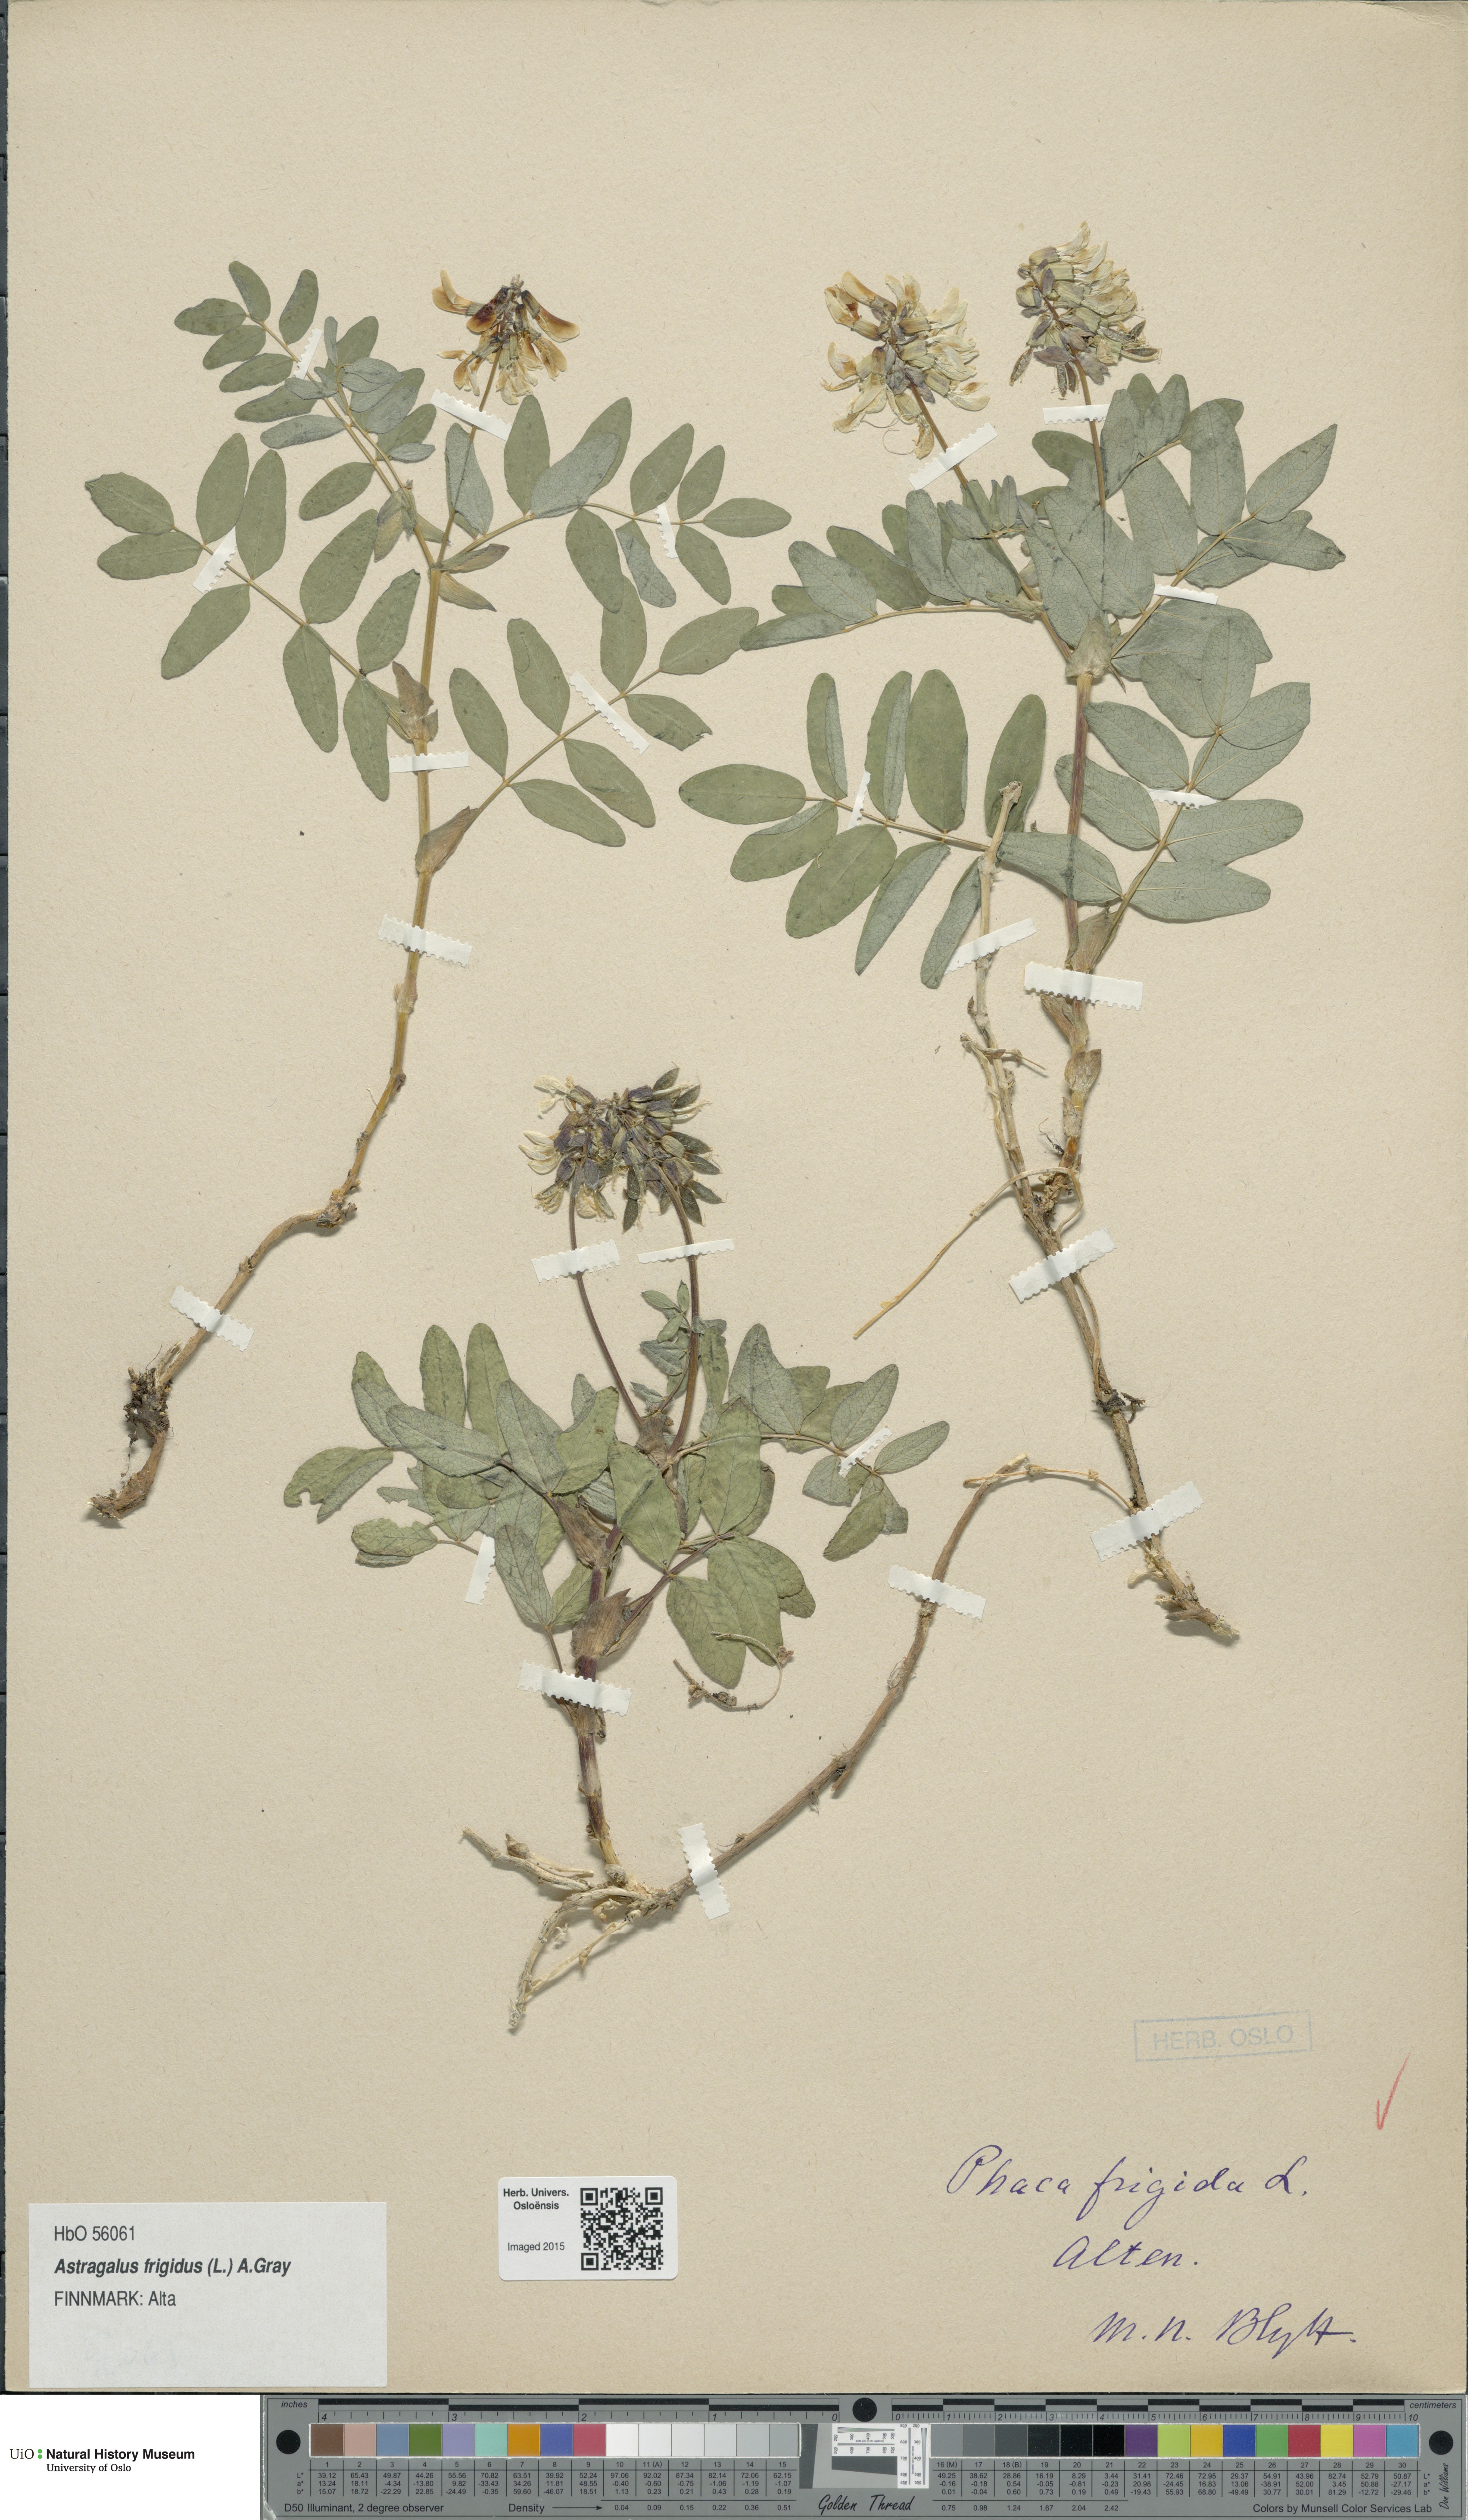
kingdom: Plantae
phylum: Tracheophyta
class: Magnoliopsida
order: Fabales
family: Fabaceae
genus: Astragalus
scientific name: Astragalus frigidus
